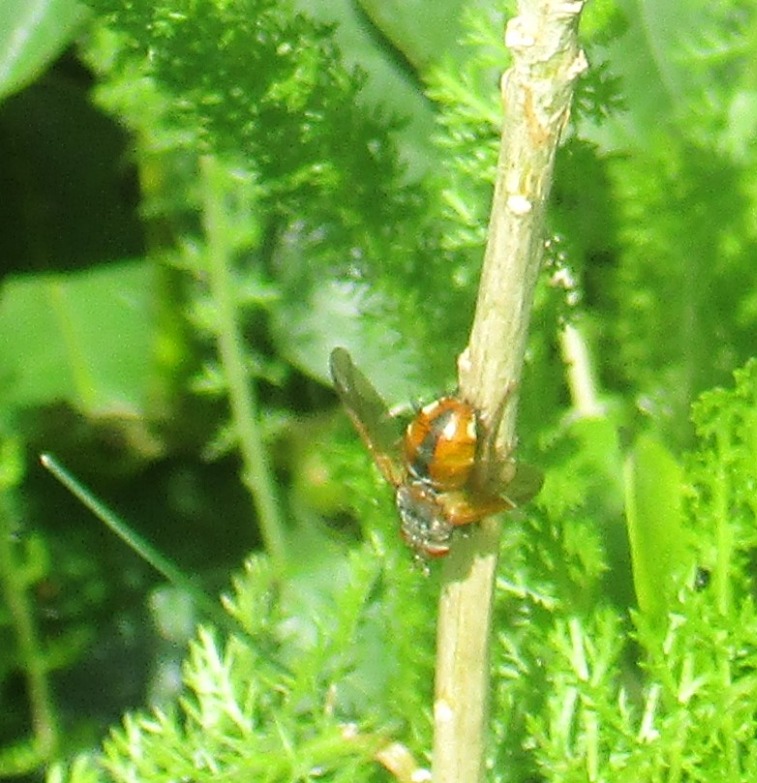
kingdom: Animalia
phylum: Arthropoda
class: Insecta
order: Diptera
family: Tachinidae
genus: Tachina
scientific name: Tachina fera
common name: Mellemfluen oskar
